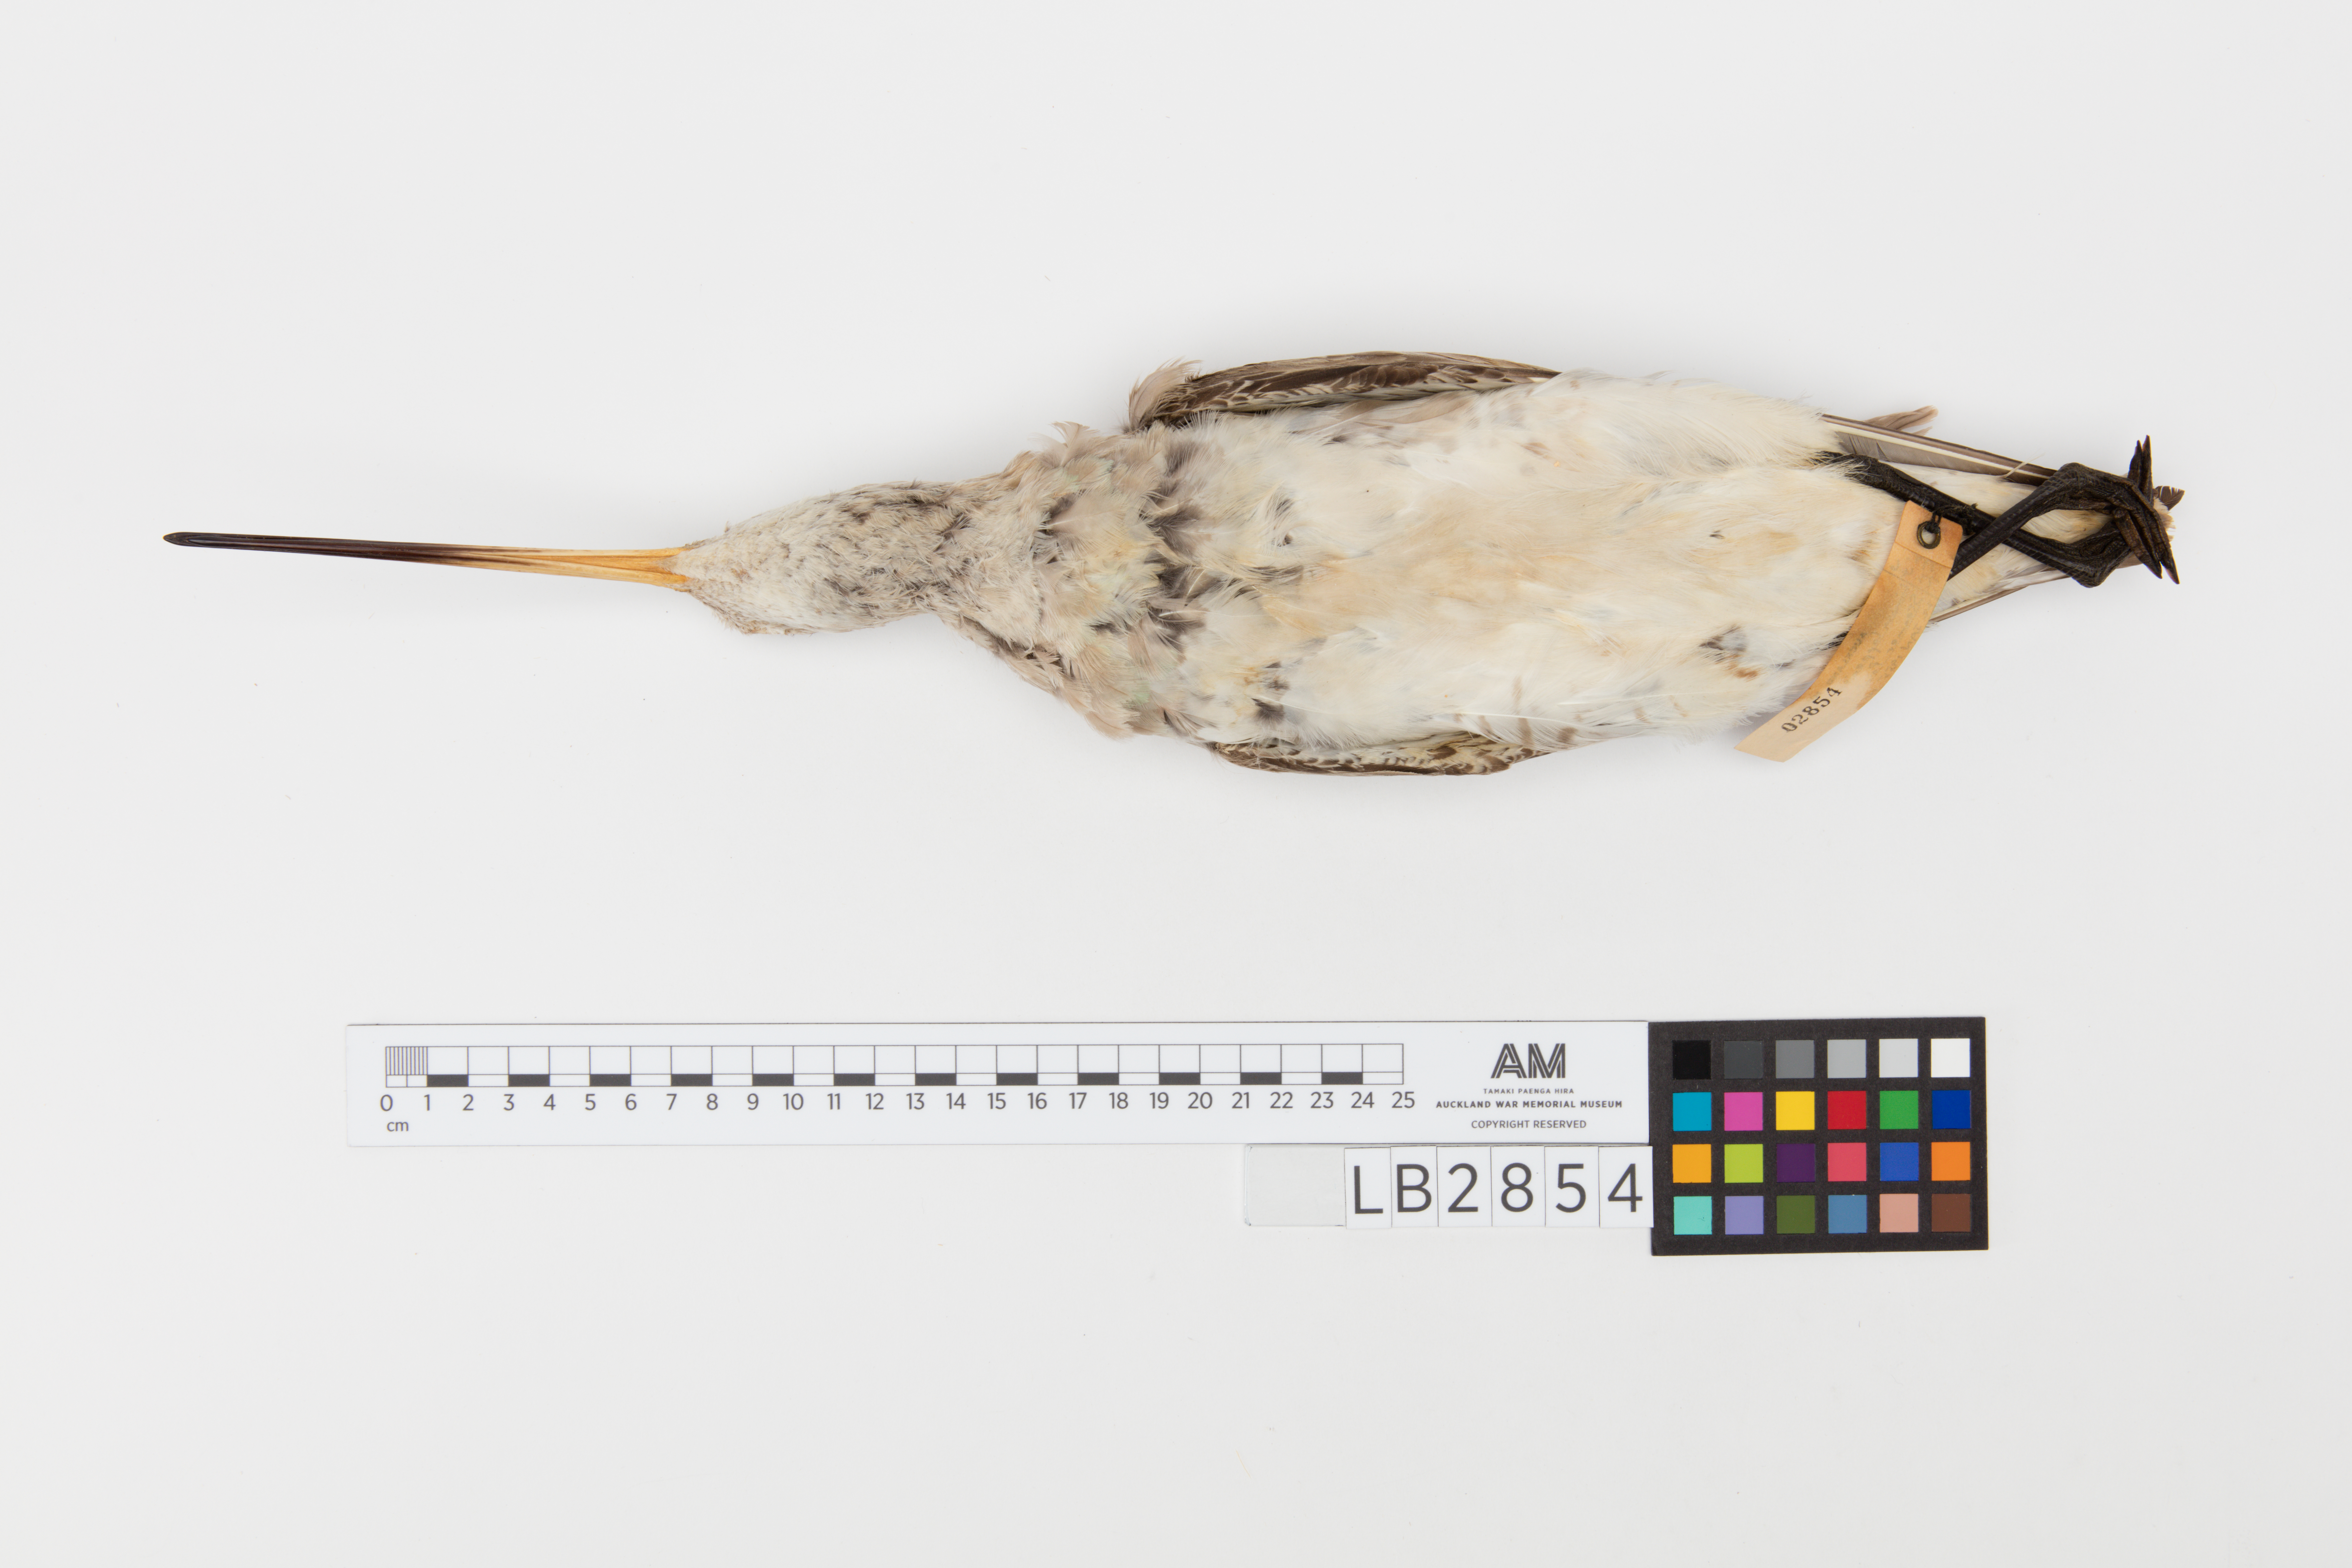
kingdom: Animalia
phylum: Chordata
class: Aves
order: Charadriiformes
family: Scolopacidae
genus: Limosa
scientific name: Limosa lapponica
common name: Bar-tailed godwit
